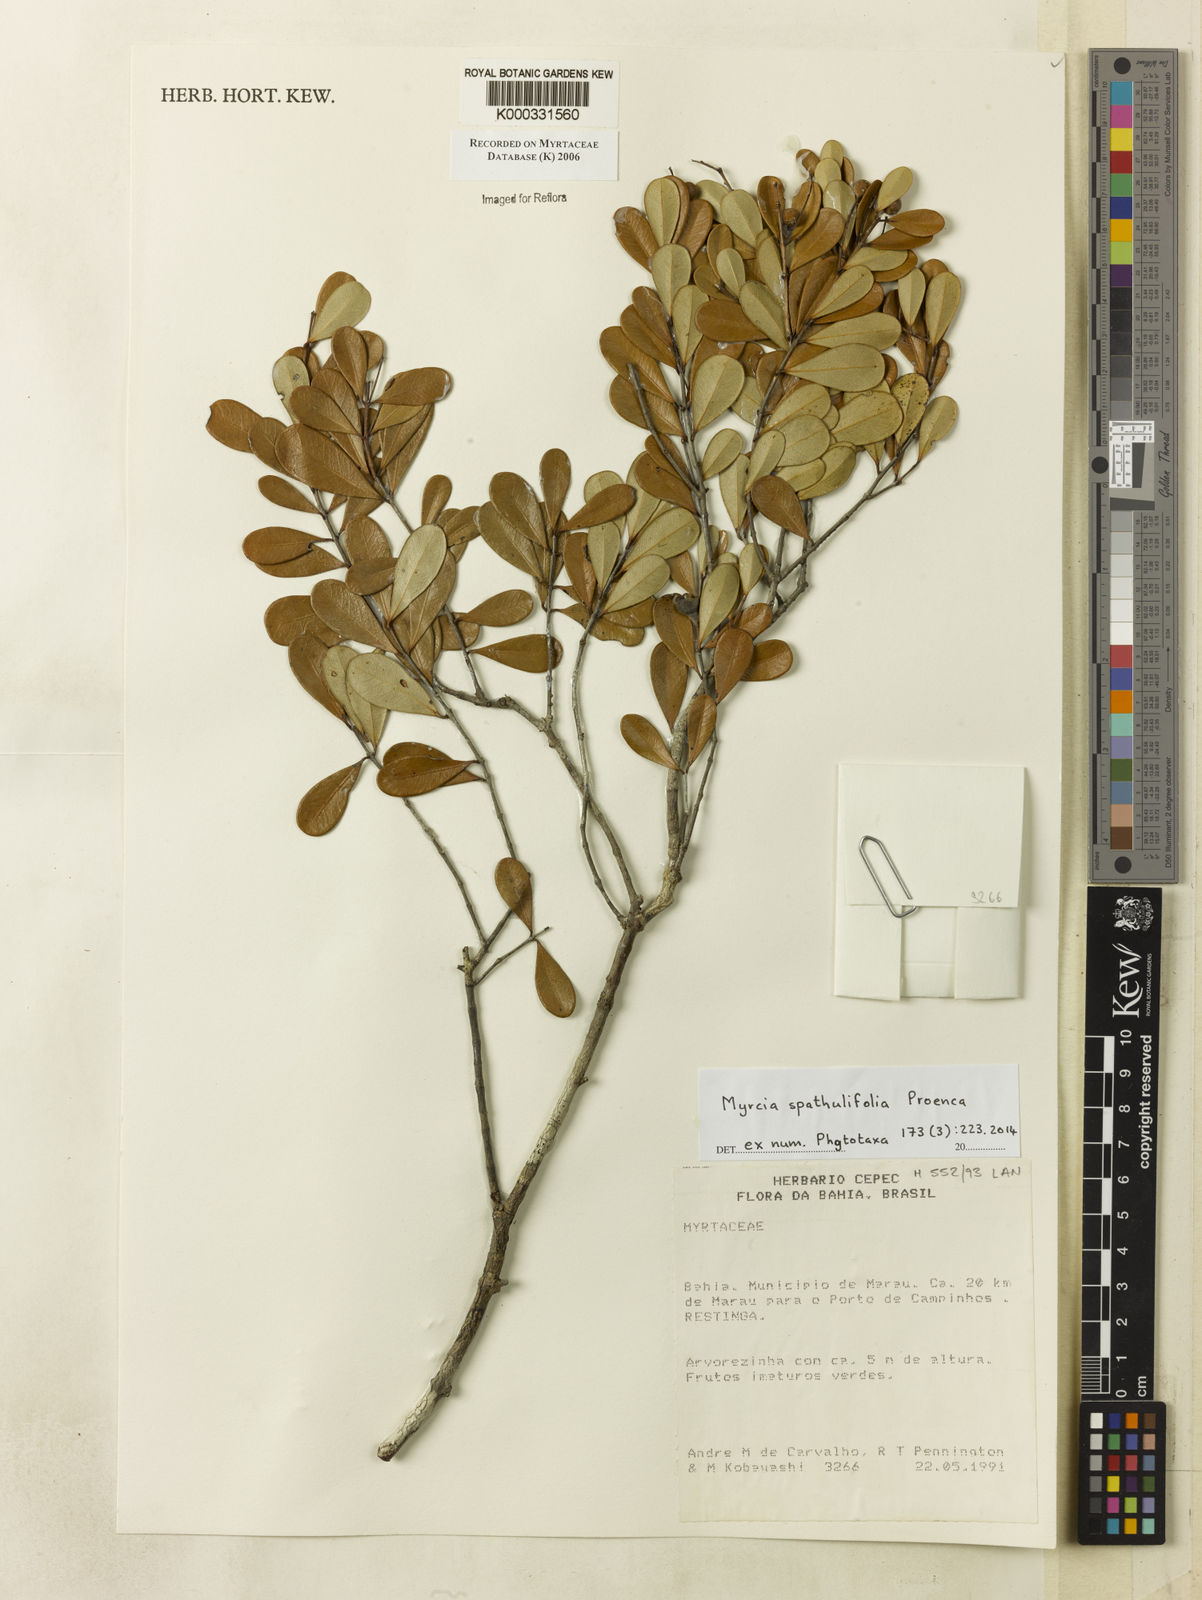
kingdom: Plantae
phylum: Tracheophyta
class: Magnoliopsida
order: Myrtales
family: Myrtaceae
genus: Myrcia
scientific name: Myrcia
